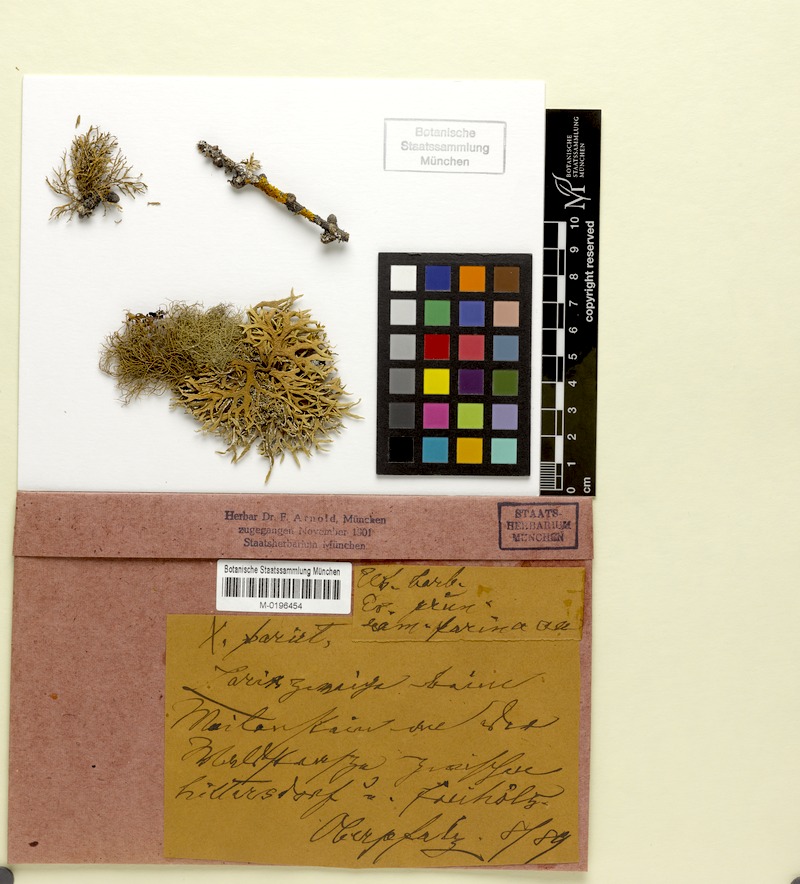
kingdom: Fungi
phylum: Ascomycota
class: Lecanoromycetes
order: Lecanorales
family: Parmeliaceae
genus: Usnea
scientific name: Usnea barbata
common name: Old man's beard lichen
